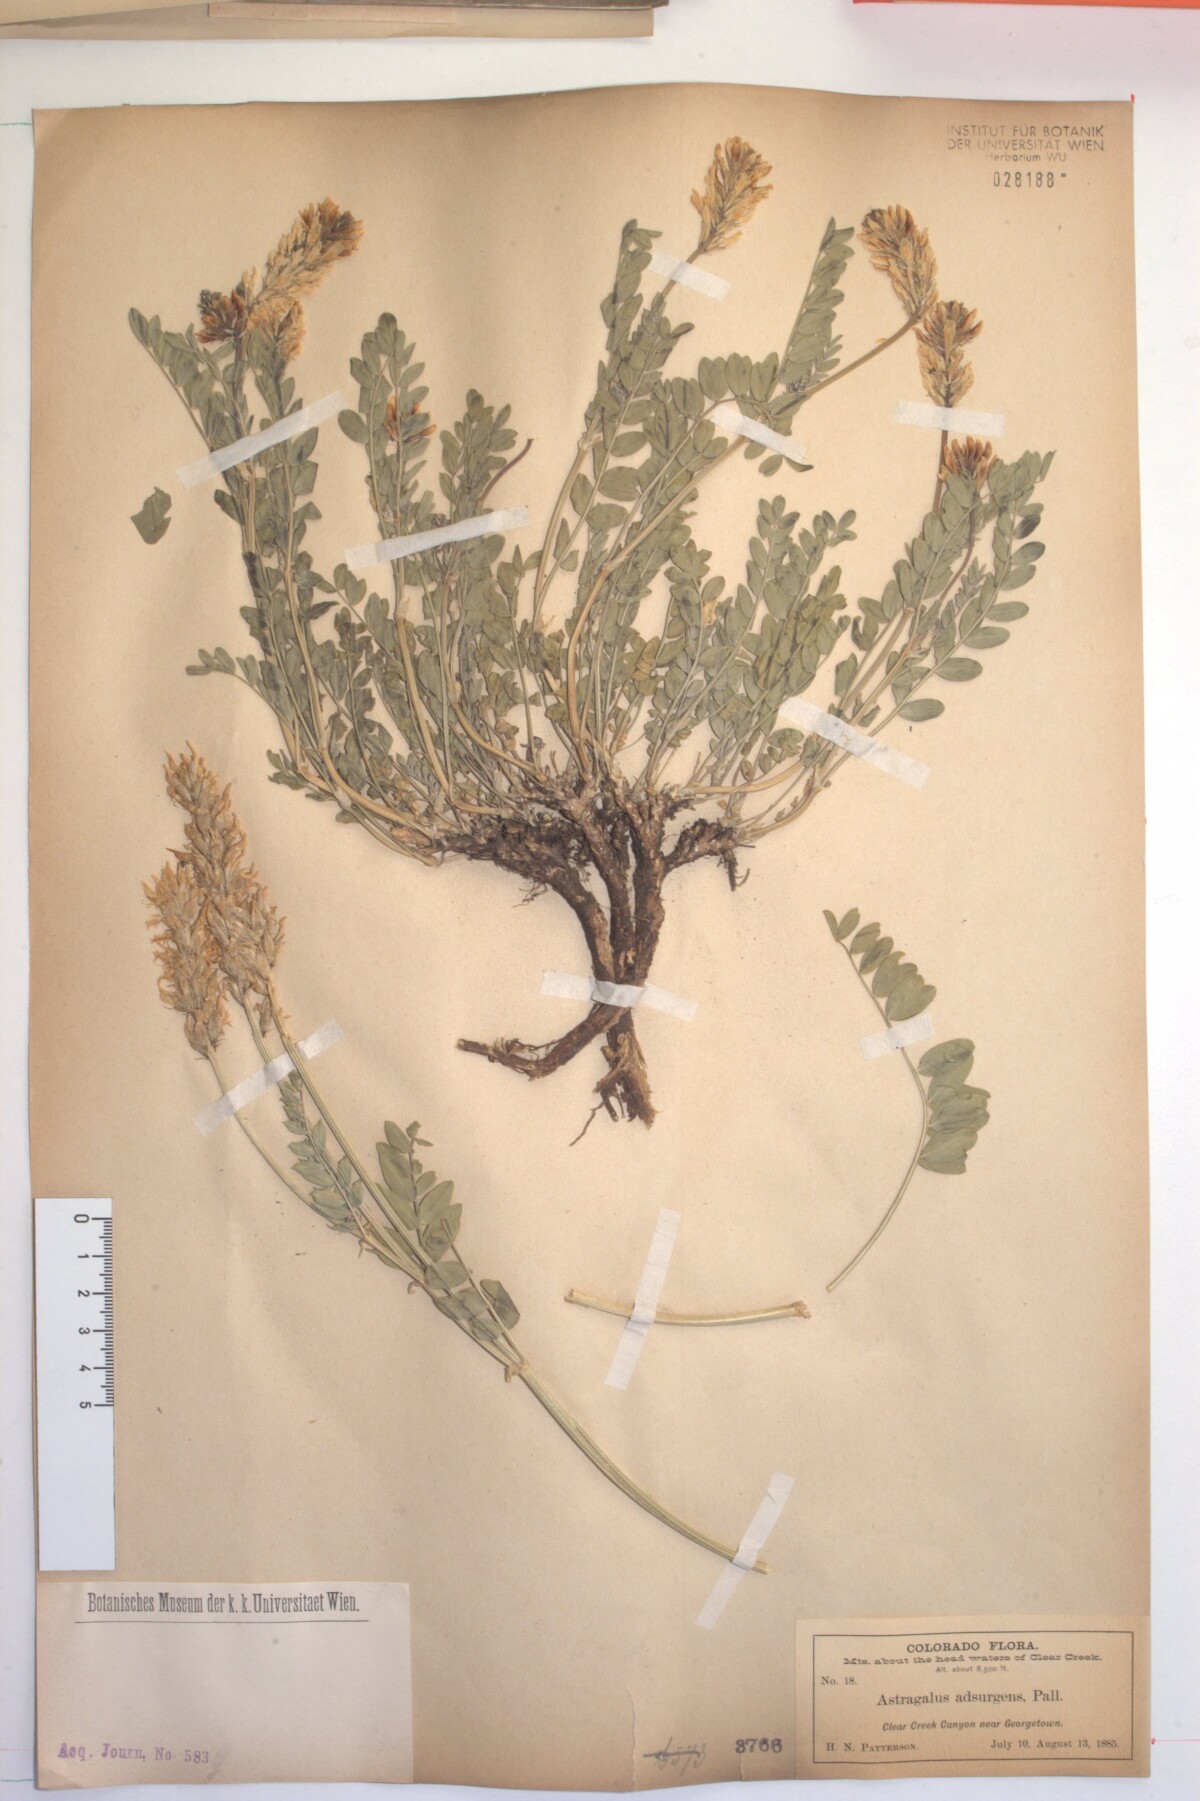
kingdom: Plantae
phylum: Tracheophyta
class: Magnoliopsida
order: Fabales
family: Fabaceae
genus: Astragalus
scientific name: Astragalus laxmannii
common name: Laxmann's milk-vetch
